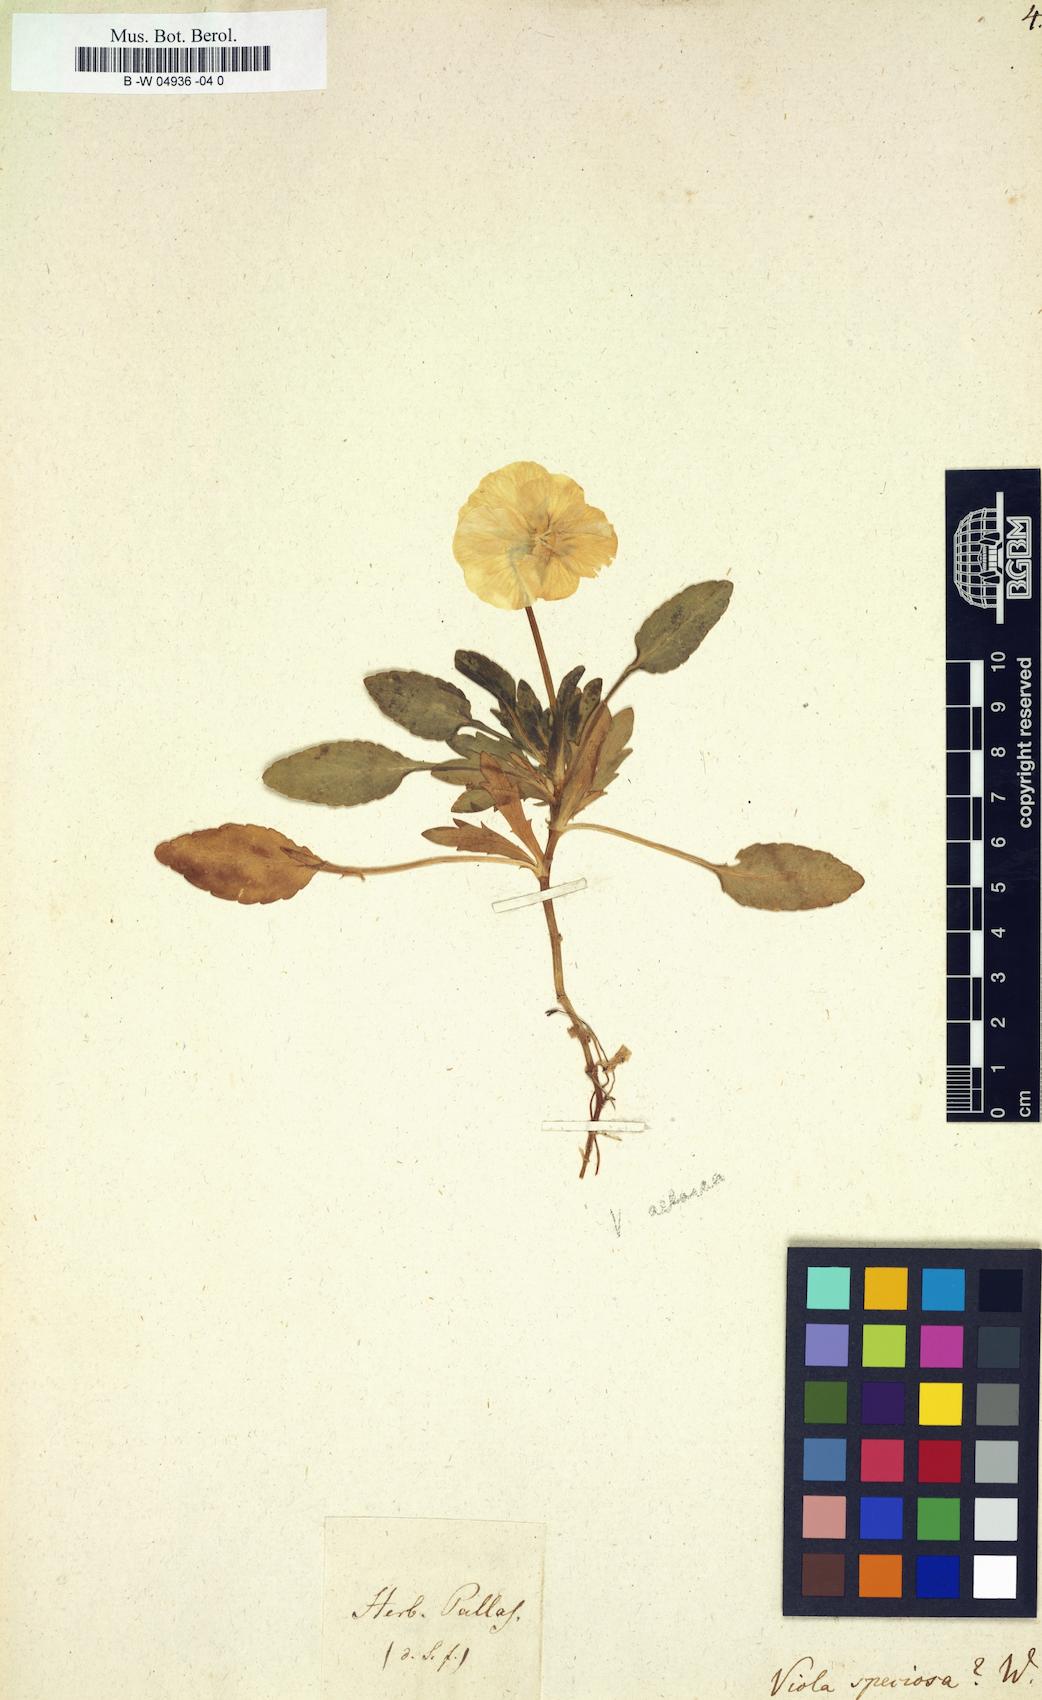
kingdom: Plantae
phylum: Tracheophyta
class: Magnoliopsida
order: Malpighiales
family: Violaceae
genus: Viola
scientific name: Viola
